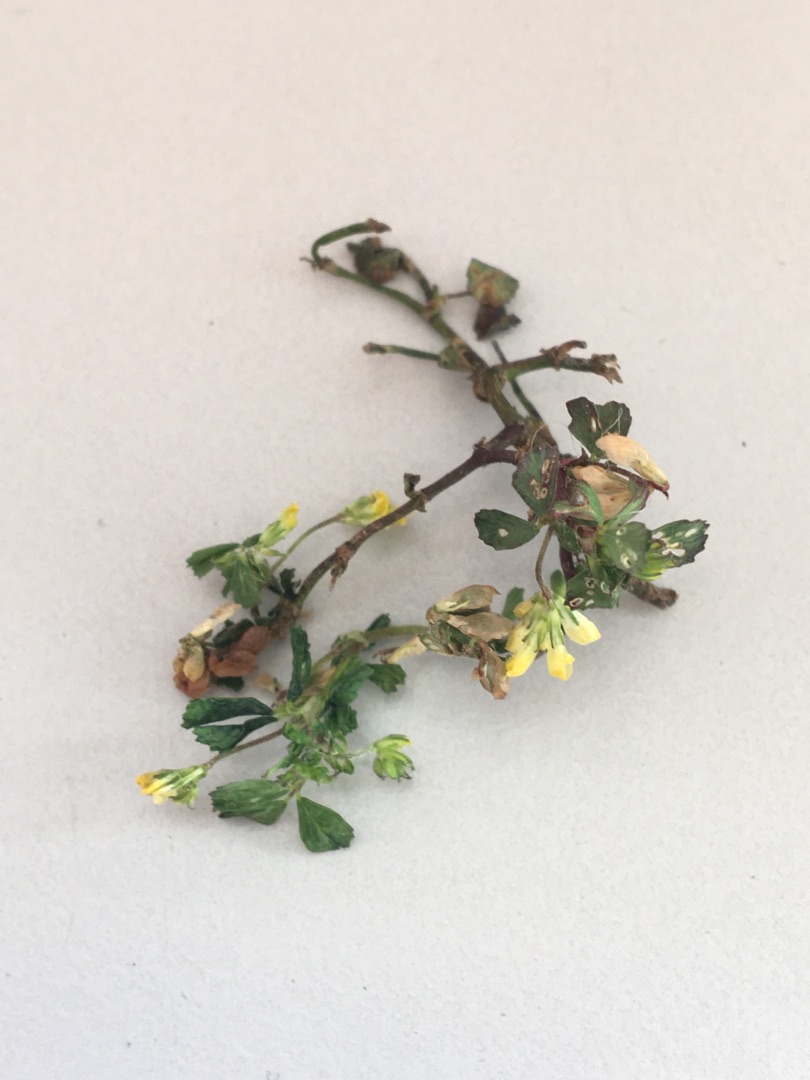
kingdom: Plantae
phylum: Tracheophyta
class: Magnoliopsida
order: Fabales
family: Fabaceae
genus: Trifolium
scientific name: Trifolium dubium
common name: Fin kløver
